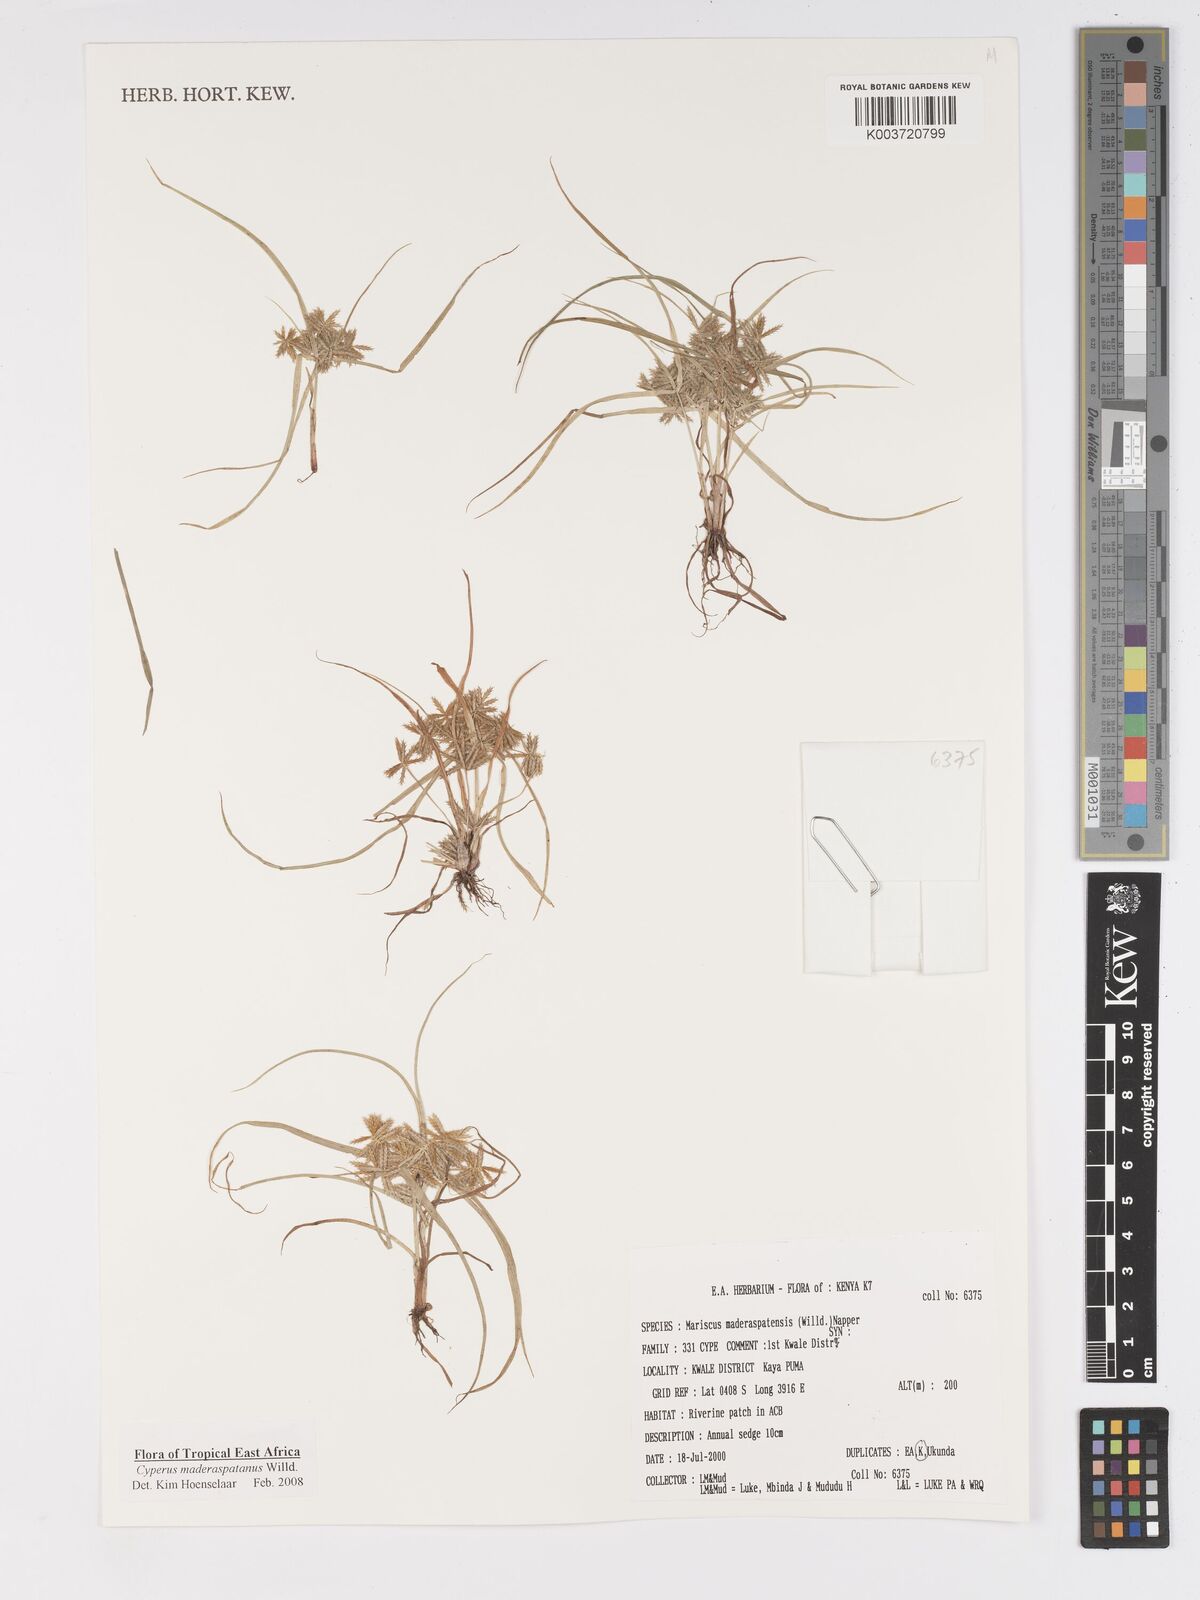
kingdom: Plantae
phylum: Tracheophyta
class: Liliopsida
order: Poales
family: Cyperaceae
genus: Cyperus
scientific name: Cyperus maderaspatanus
